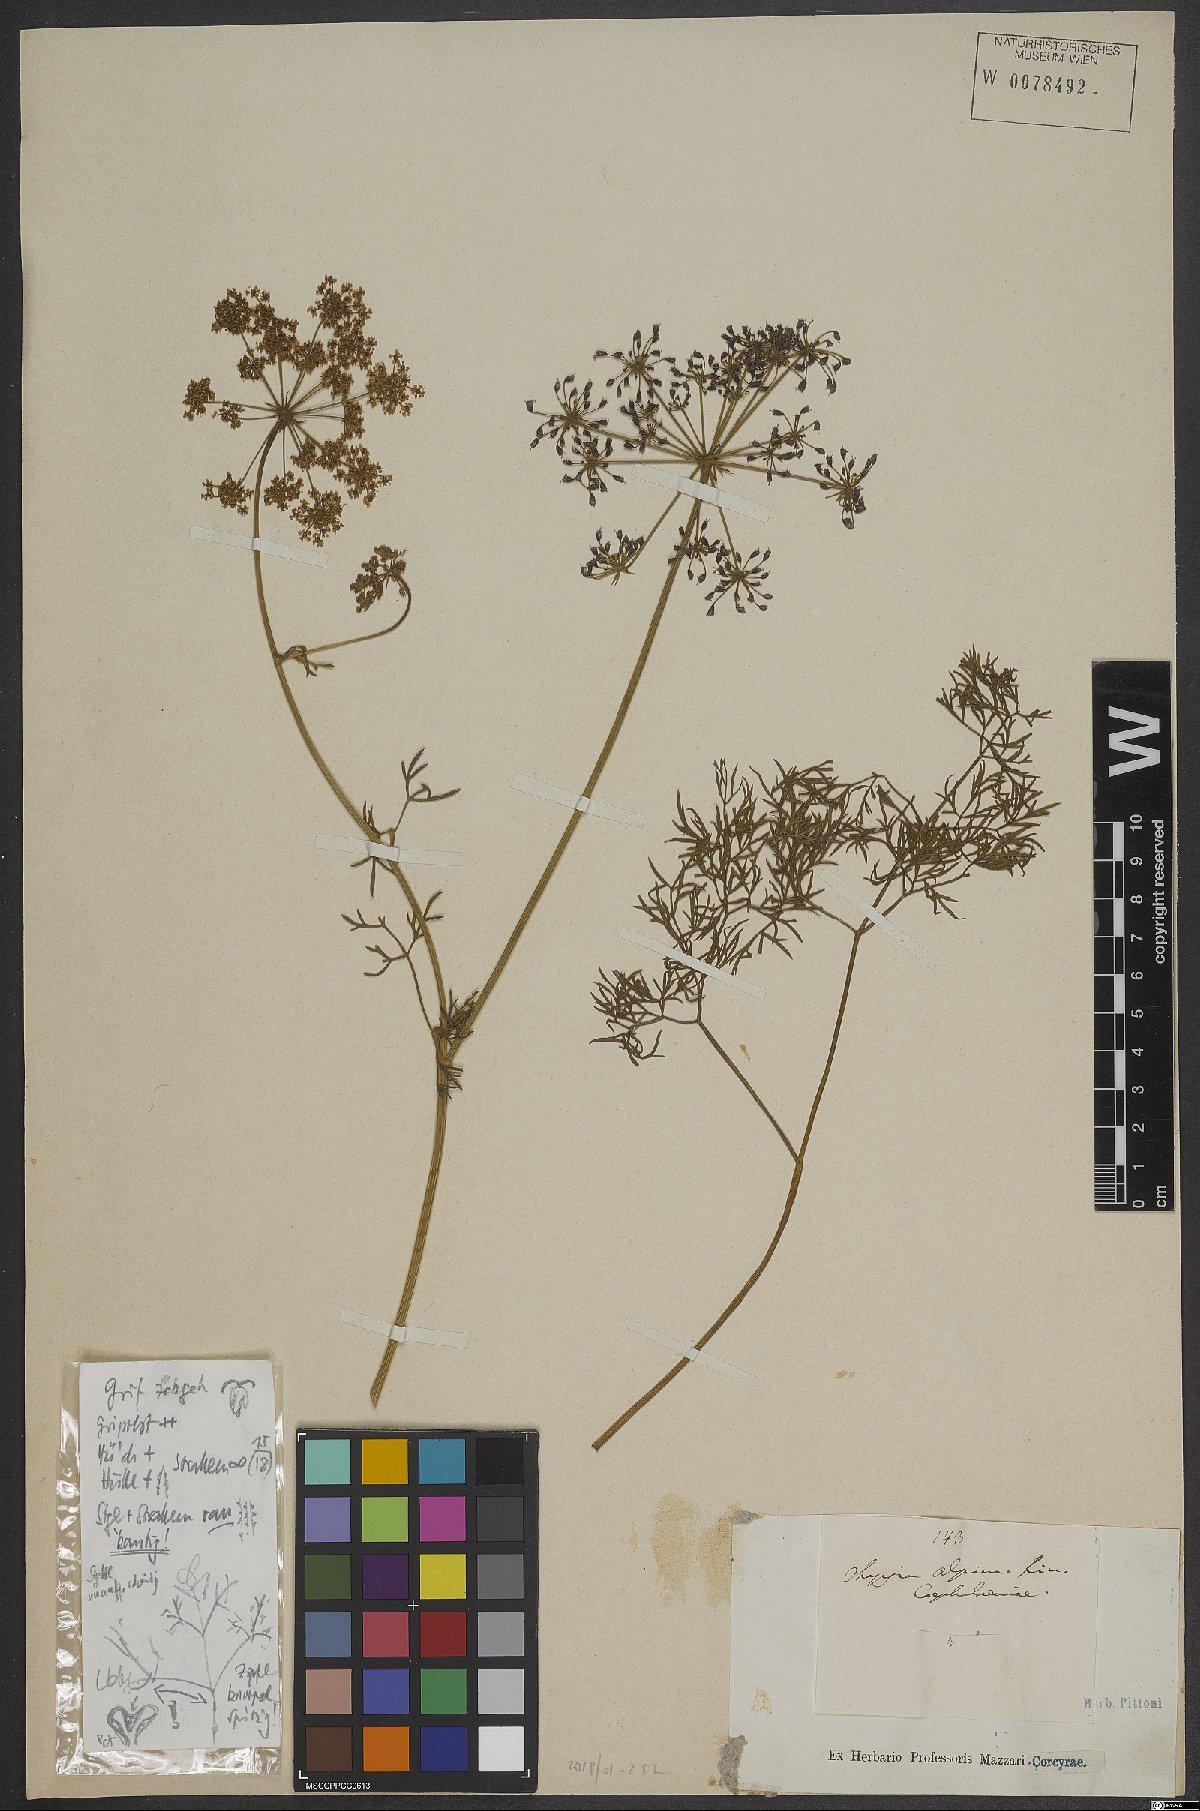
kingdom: Plantae
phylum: Tracheophyta
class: Magnoliopsida
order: Apiales
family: Apiaceae
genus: Thapsia
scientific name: Thapsia
